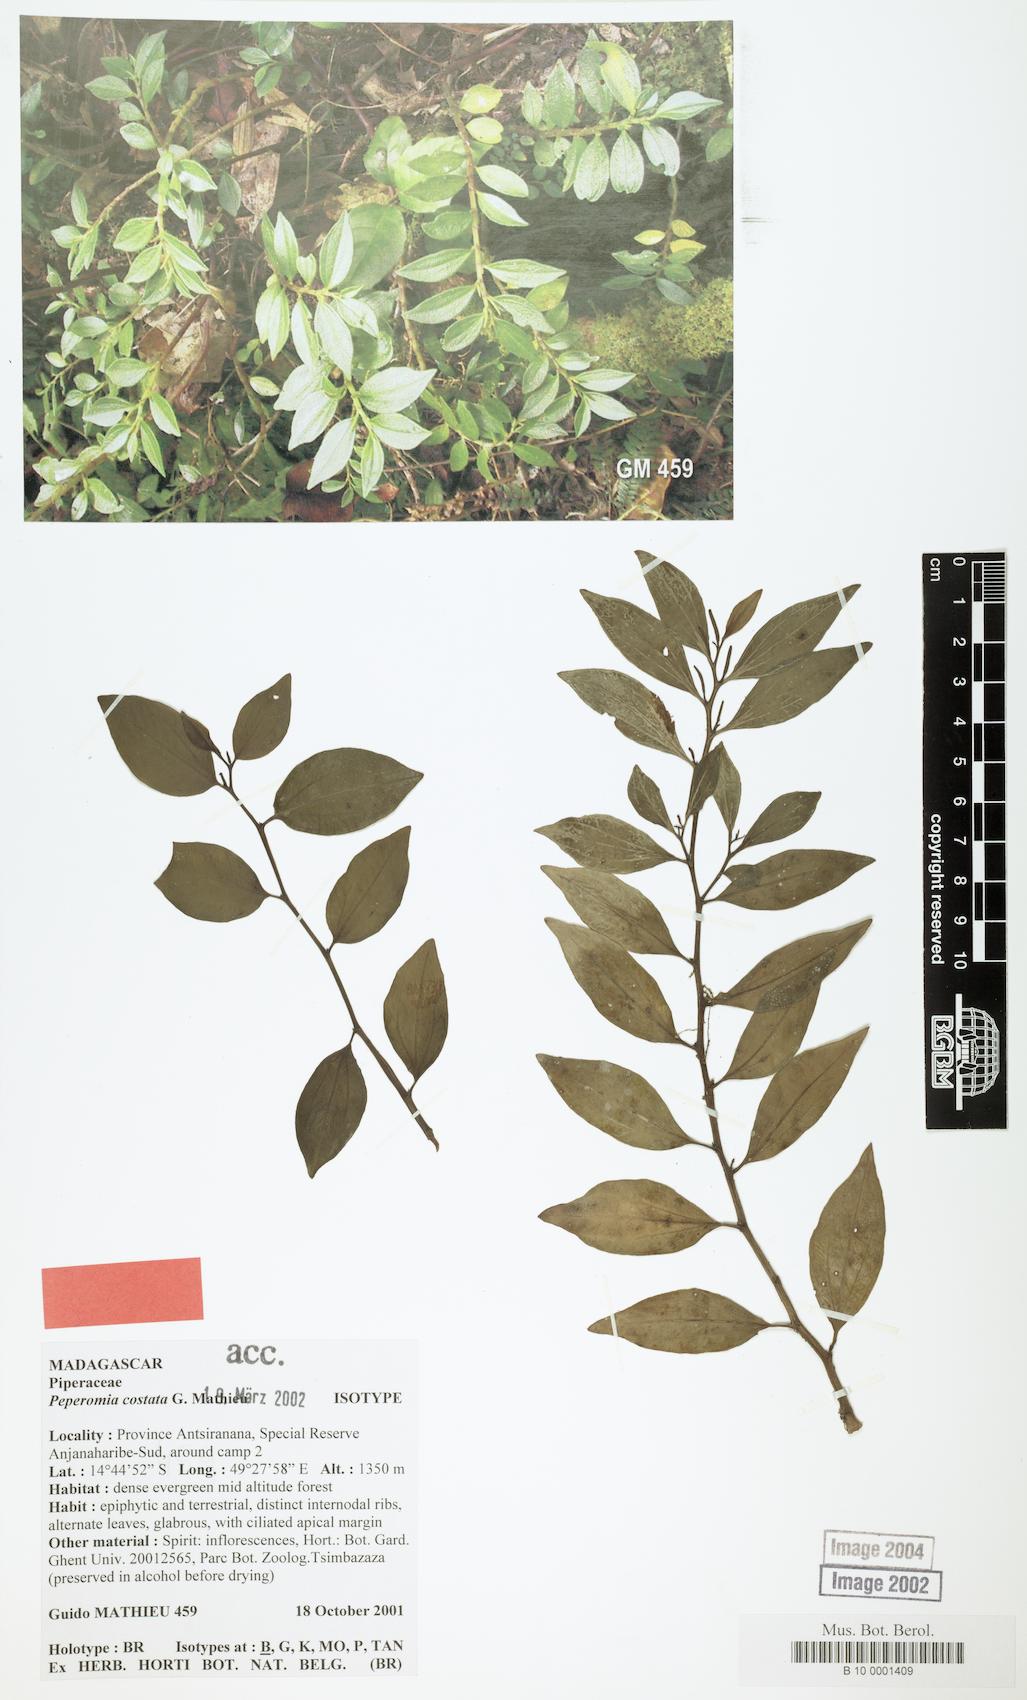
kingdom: Plantae
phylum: Tracheophyta
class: Magnoliopsida
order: Piperales
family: Piperaceae
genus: Peperomia
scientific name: Peperomia costata
